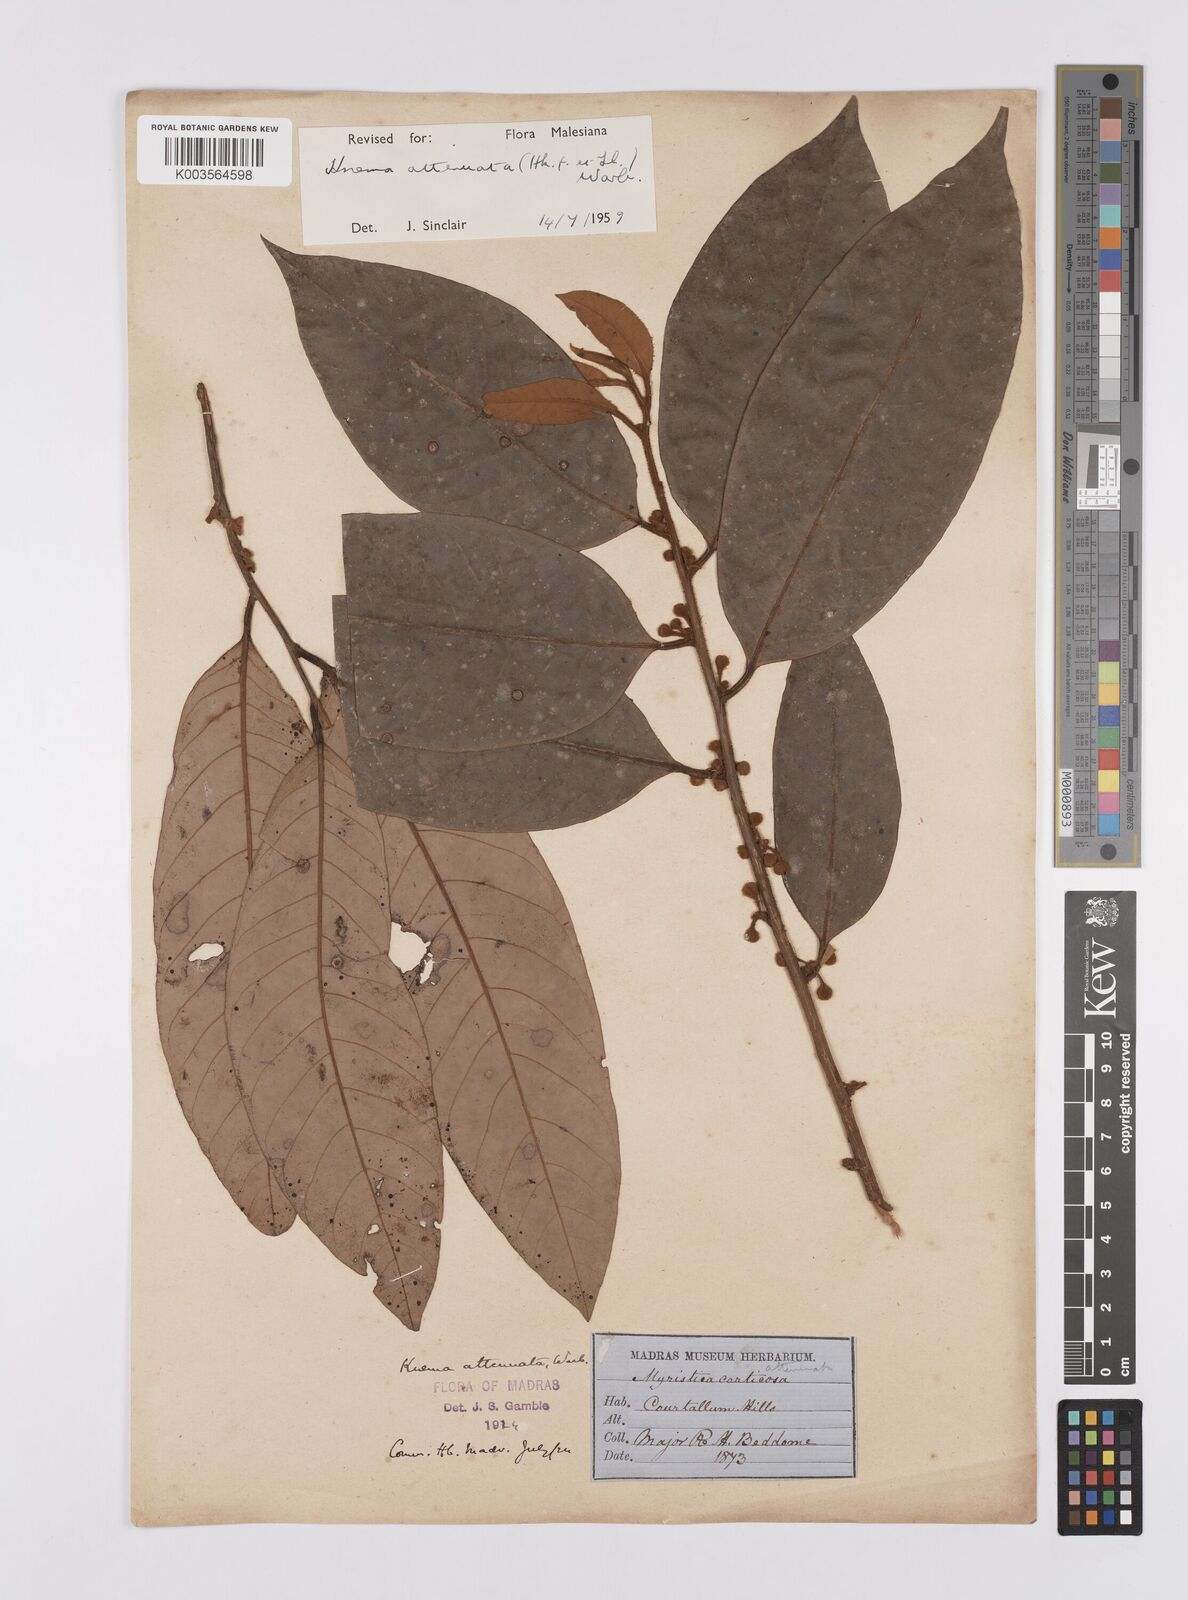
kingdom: Plantae
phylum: Tracheophyta
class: Magnoliopsida
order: Magnoliales
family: Myristicaceae
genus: Knema
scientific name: Knema attenuata
